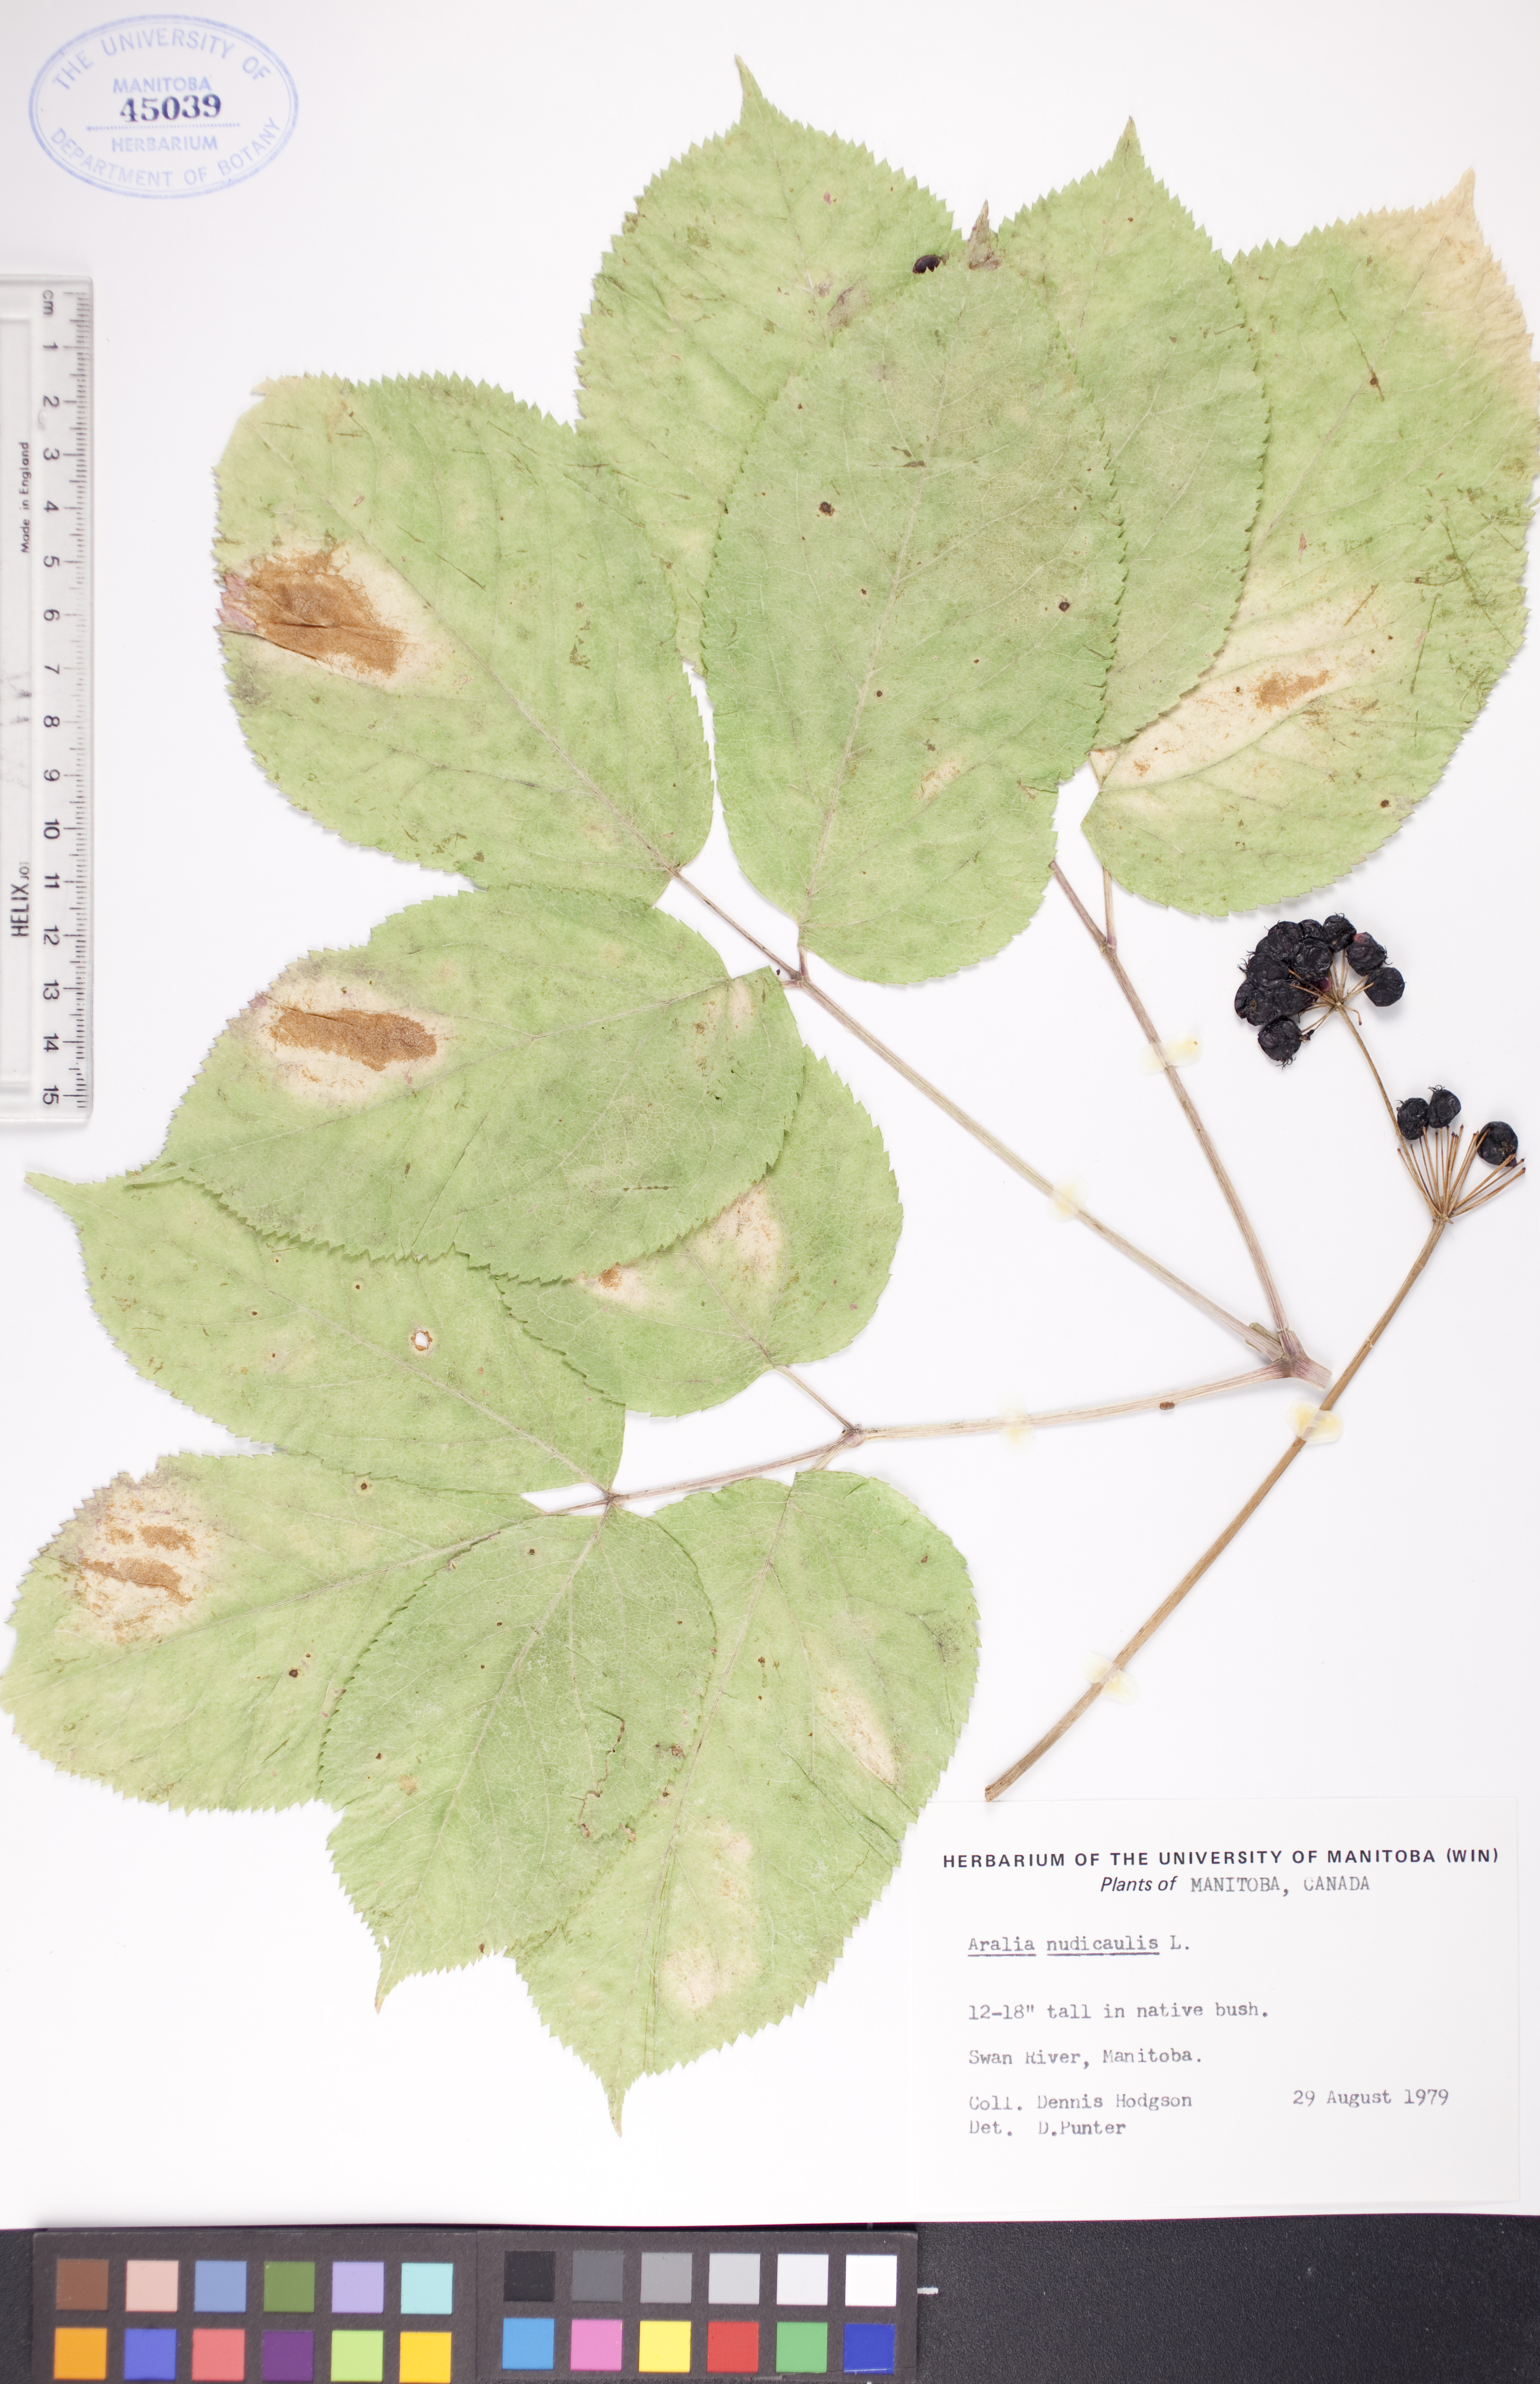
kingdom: Plantae
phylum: Tracheophyta
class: Magnoliopsida
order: Apiales
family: Araliaceae
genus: Aralia
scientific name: Aralia nudicaulis
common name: Wild sarsaparilla
